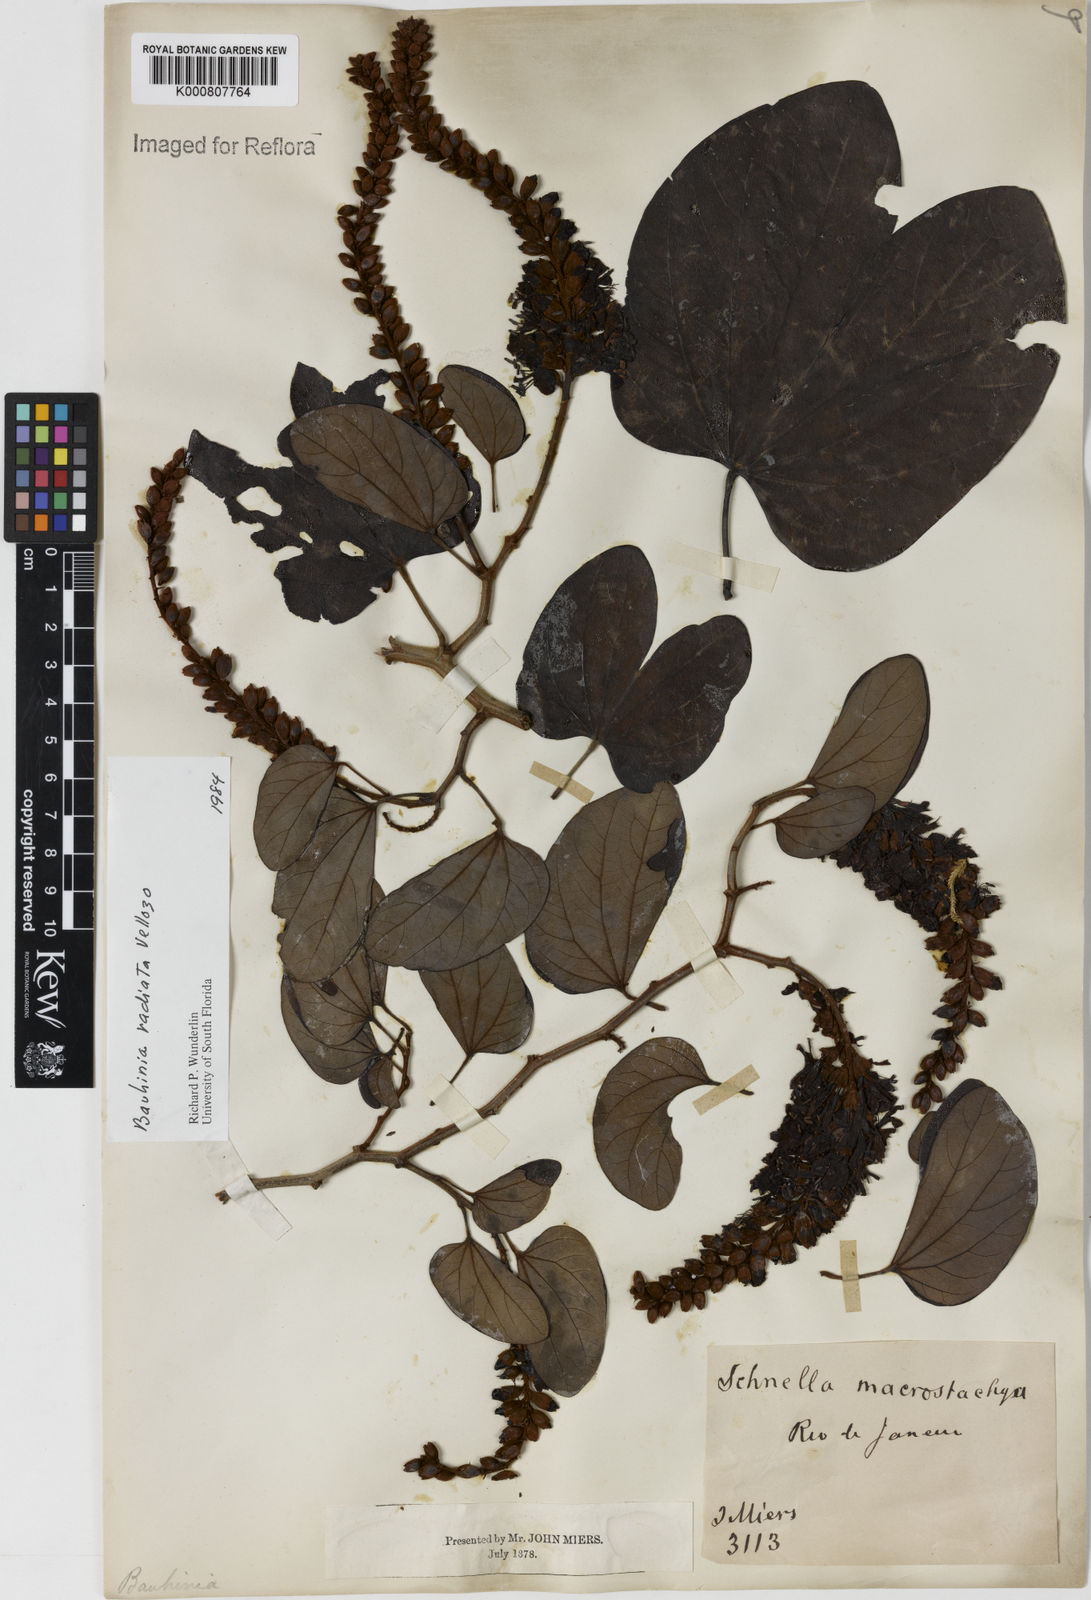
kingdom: Plantae
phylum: Tracheophyta
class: Magnoliopsida
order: Fabales
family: Fabaceae
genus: Schnella
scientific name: Schnella macrostachya
